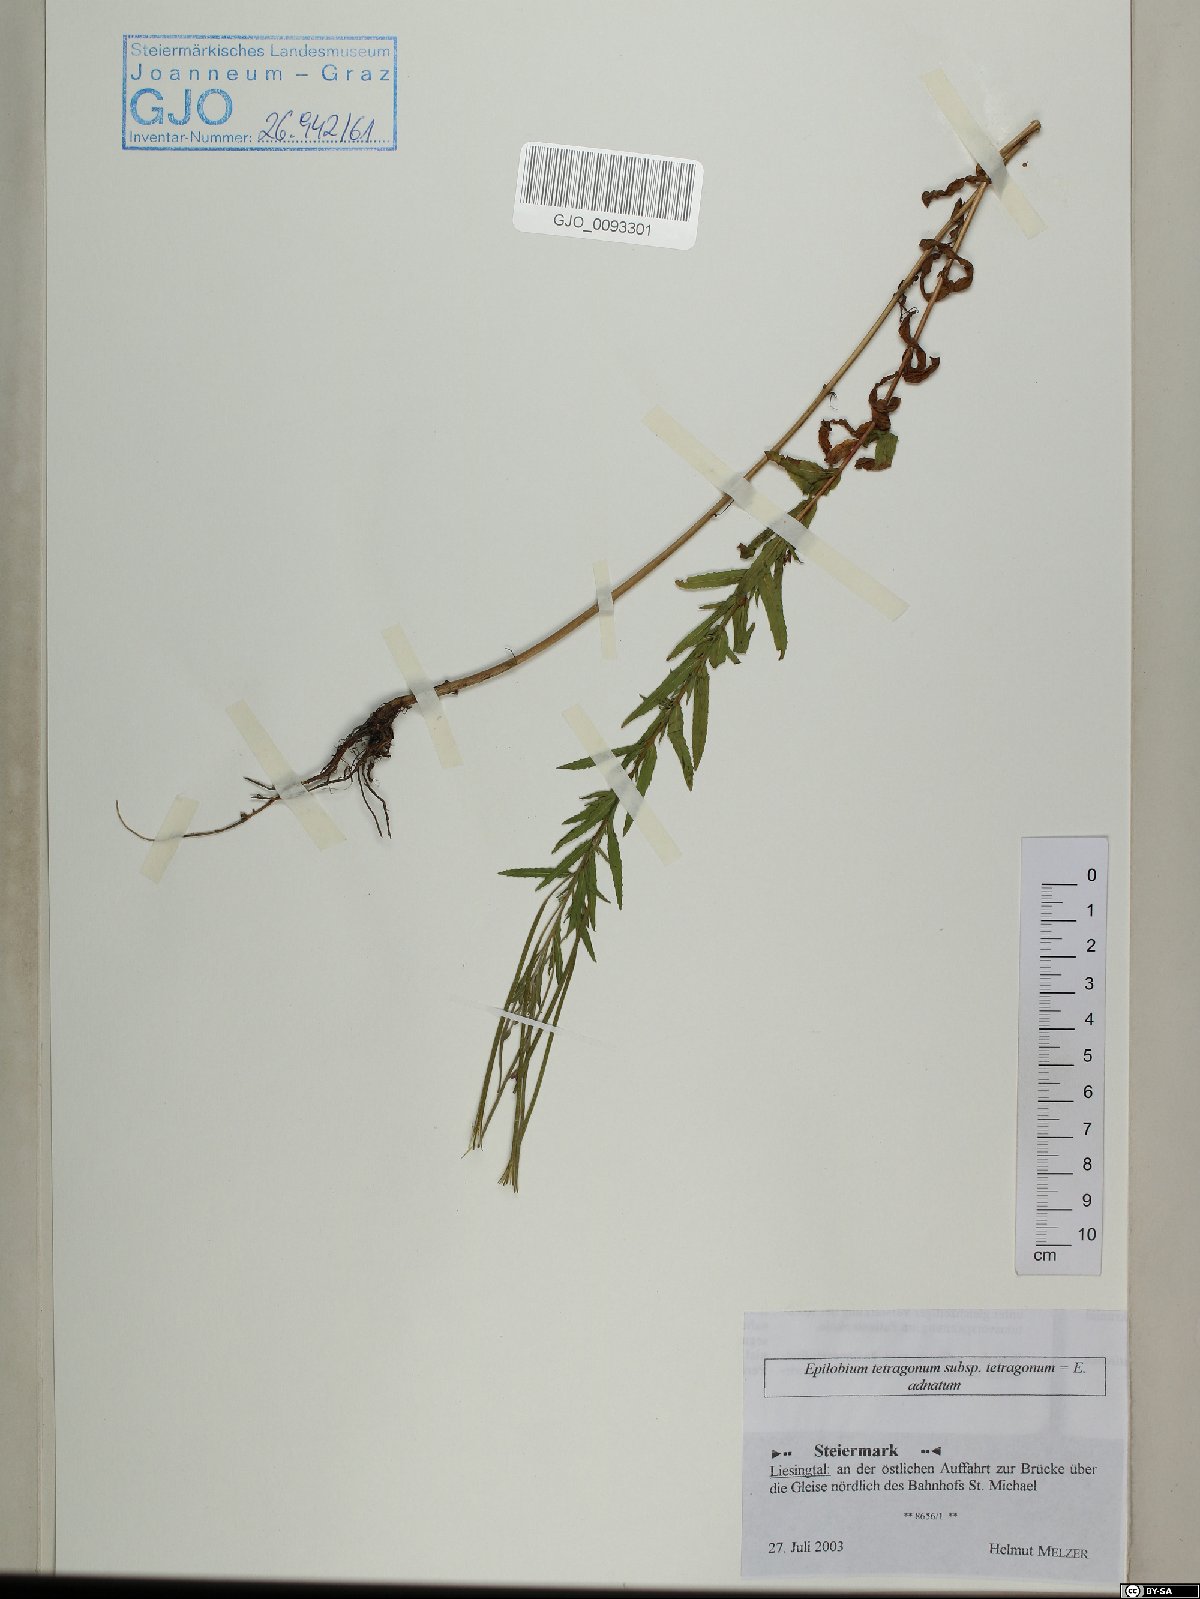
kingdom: Plantae
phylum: Tracheophyta
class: Magnoliopsida
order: Myrtales
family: Onagraceae
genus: Epilobium
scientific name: Epilobium tetragonum
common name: Square-stemmed willowherb
